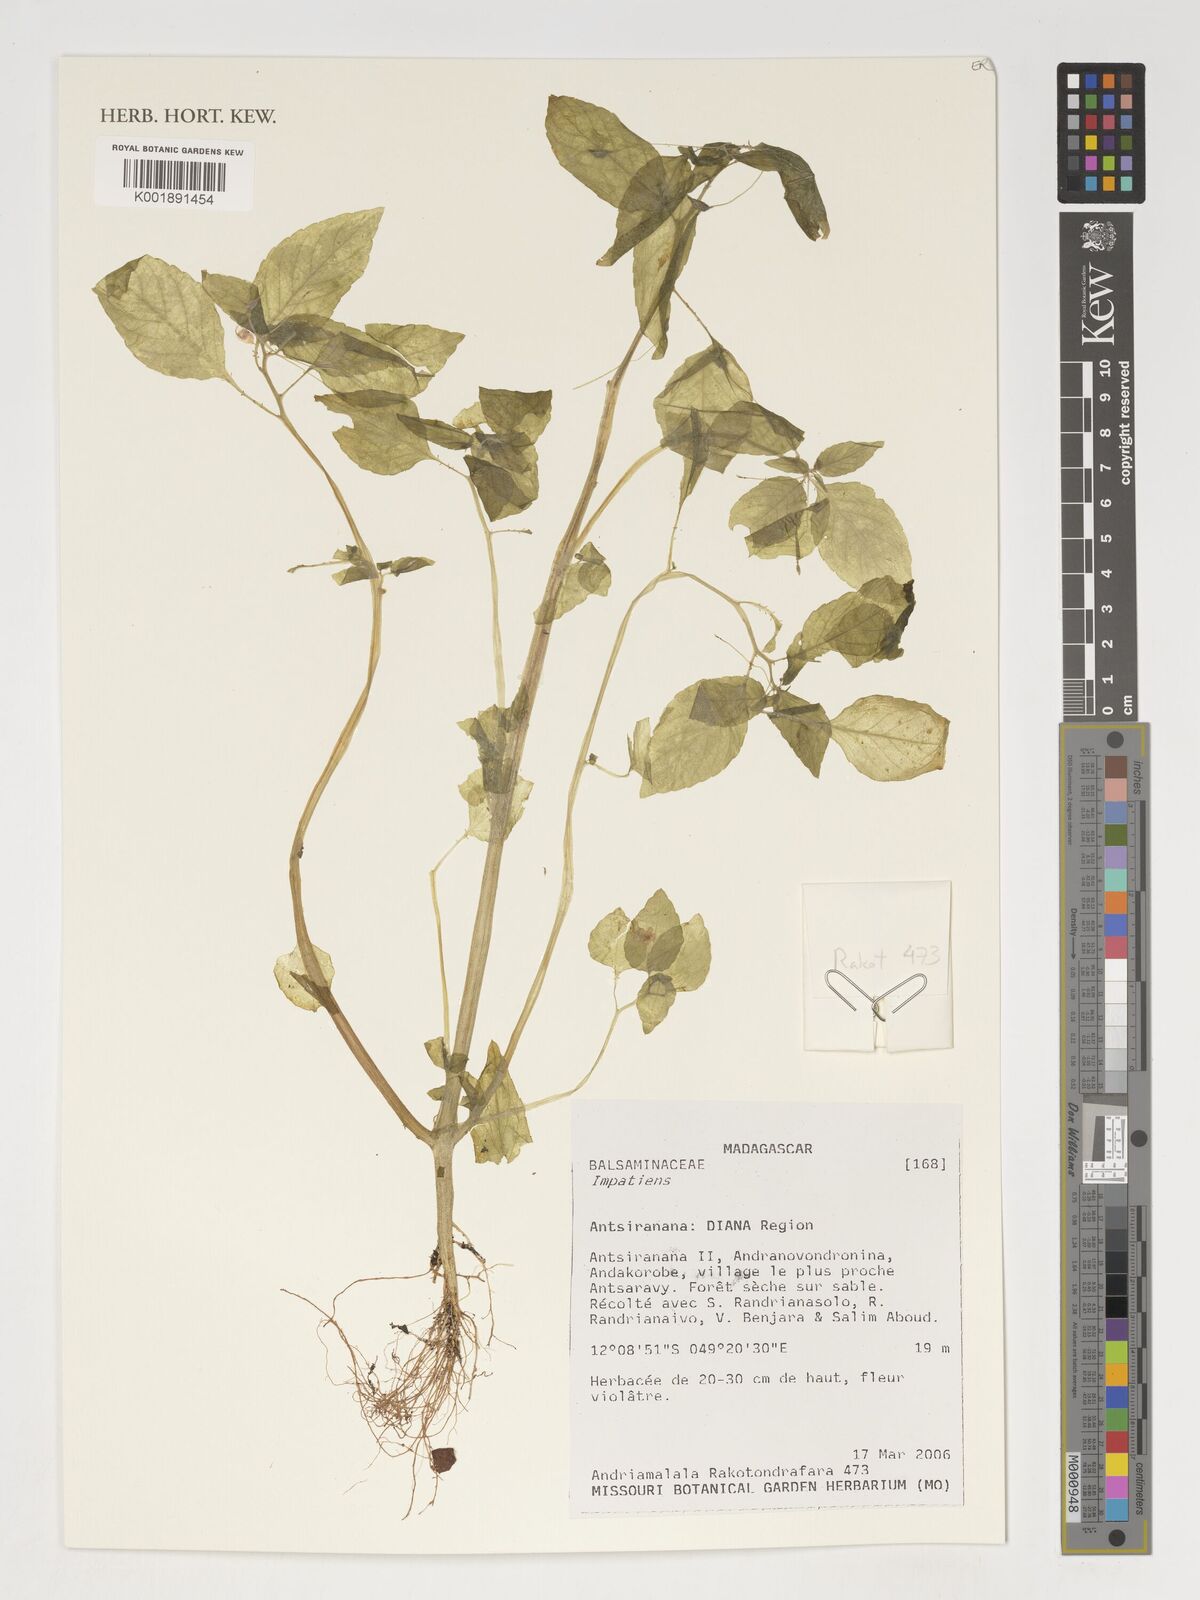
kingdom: Plantae
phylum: Tracheophyta
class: Magnoliopsida
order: Ericales
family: Balsaminaceae
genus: Impatiens
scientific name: Impatiens
